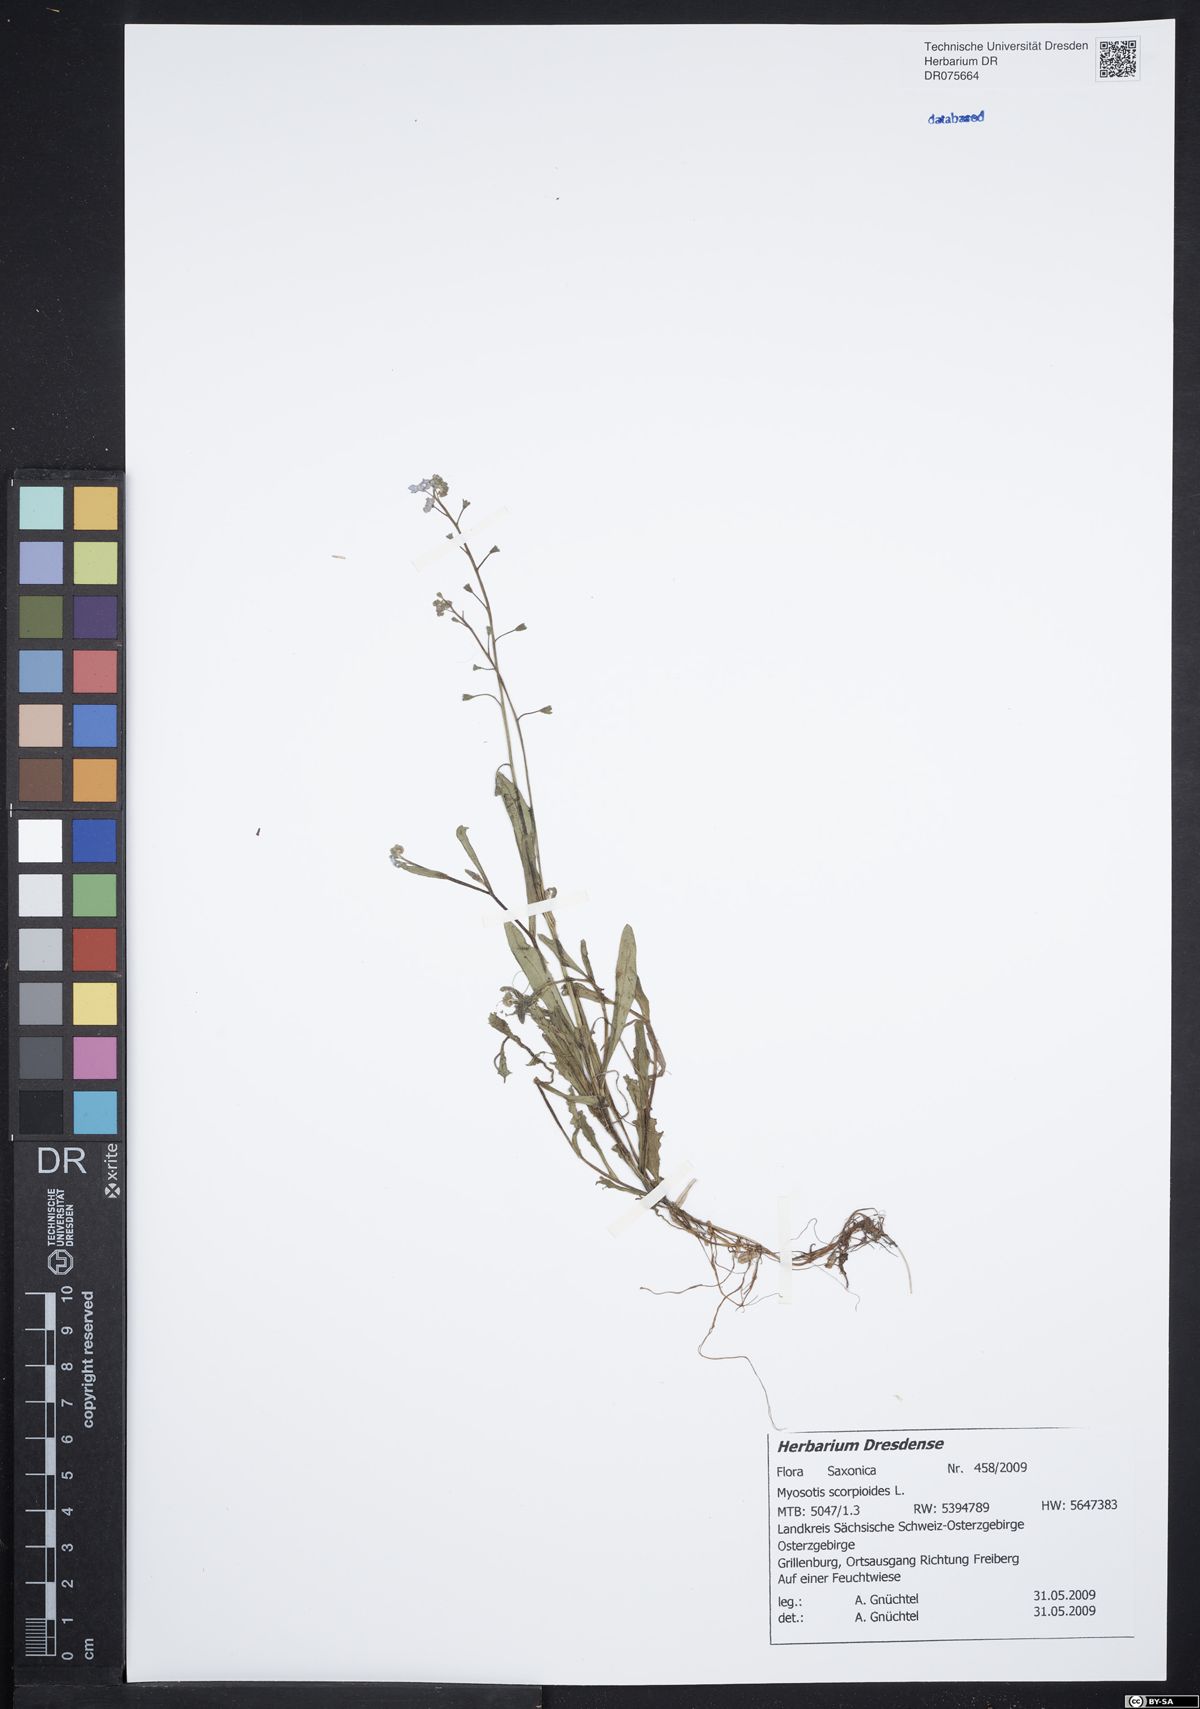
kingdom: Plantae
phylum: Tracheophyta
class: Magnoliopsida
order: Boraginales
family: Boraginaceae
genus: Myosotis
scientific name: Myosotis scorpioides
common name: Water forget-me-not
